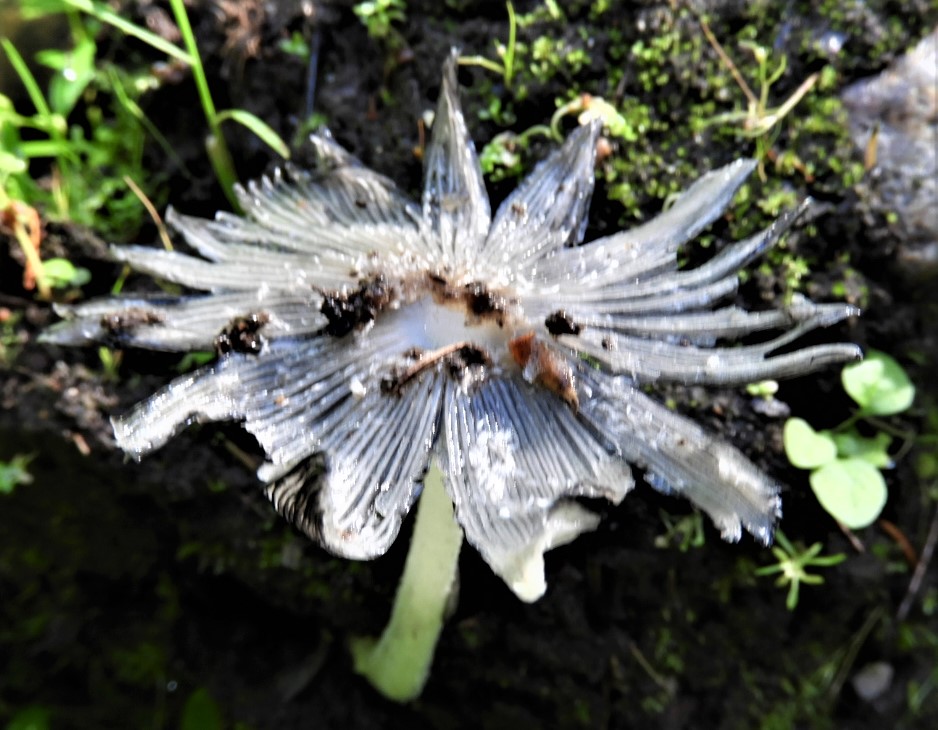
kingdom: Fungi
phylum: Basidiomycota
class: Agaricomycetes
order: Agaricales
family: Psathyrellaceae
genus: Coprinopsis
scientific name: Coprinopsis lagopus
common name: dunstokket blækhat
